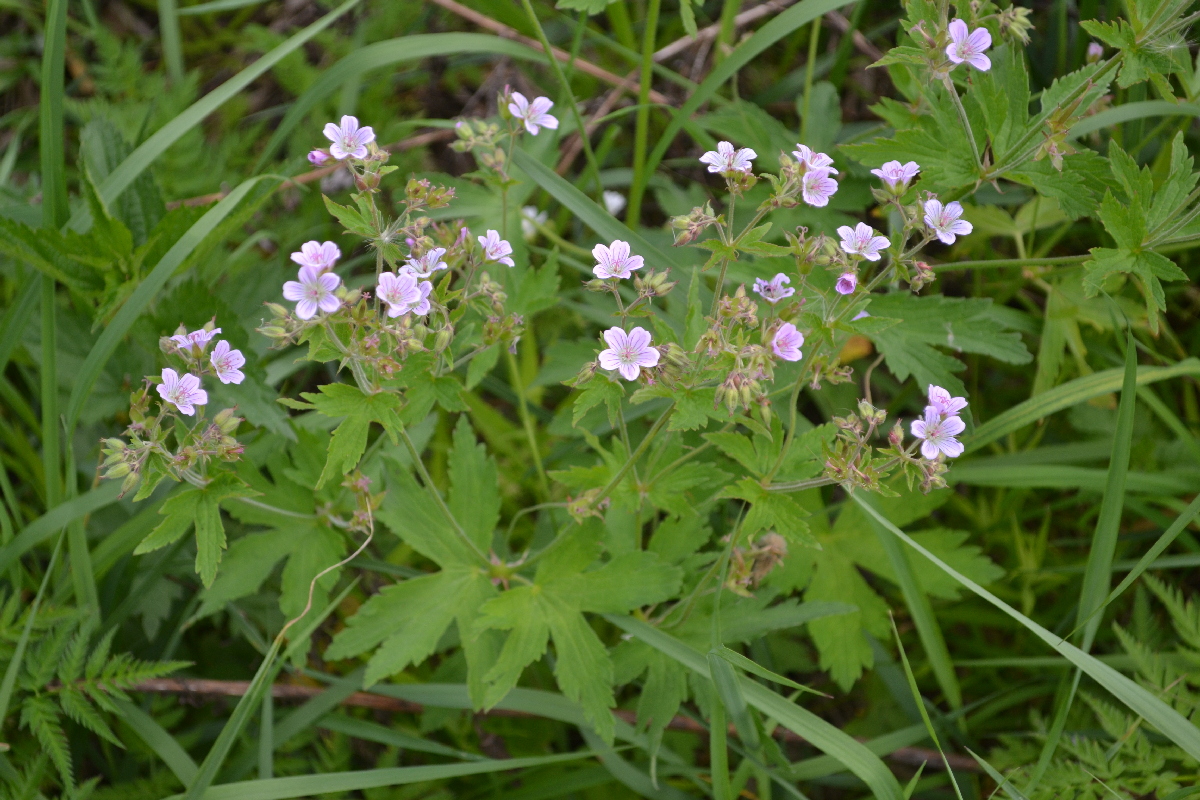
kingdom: Plantae
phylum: Tracheophyta
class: Magnoliopsida
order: Geraniales
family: Geraniaceae
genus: Geranium
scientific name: Geranium sylvaticum
